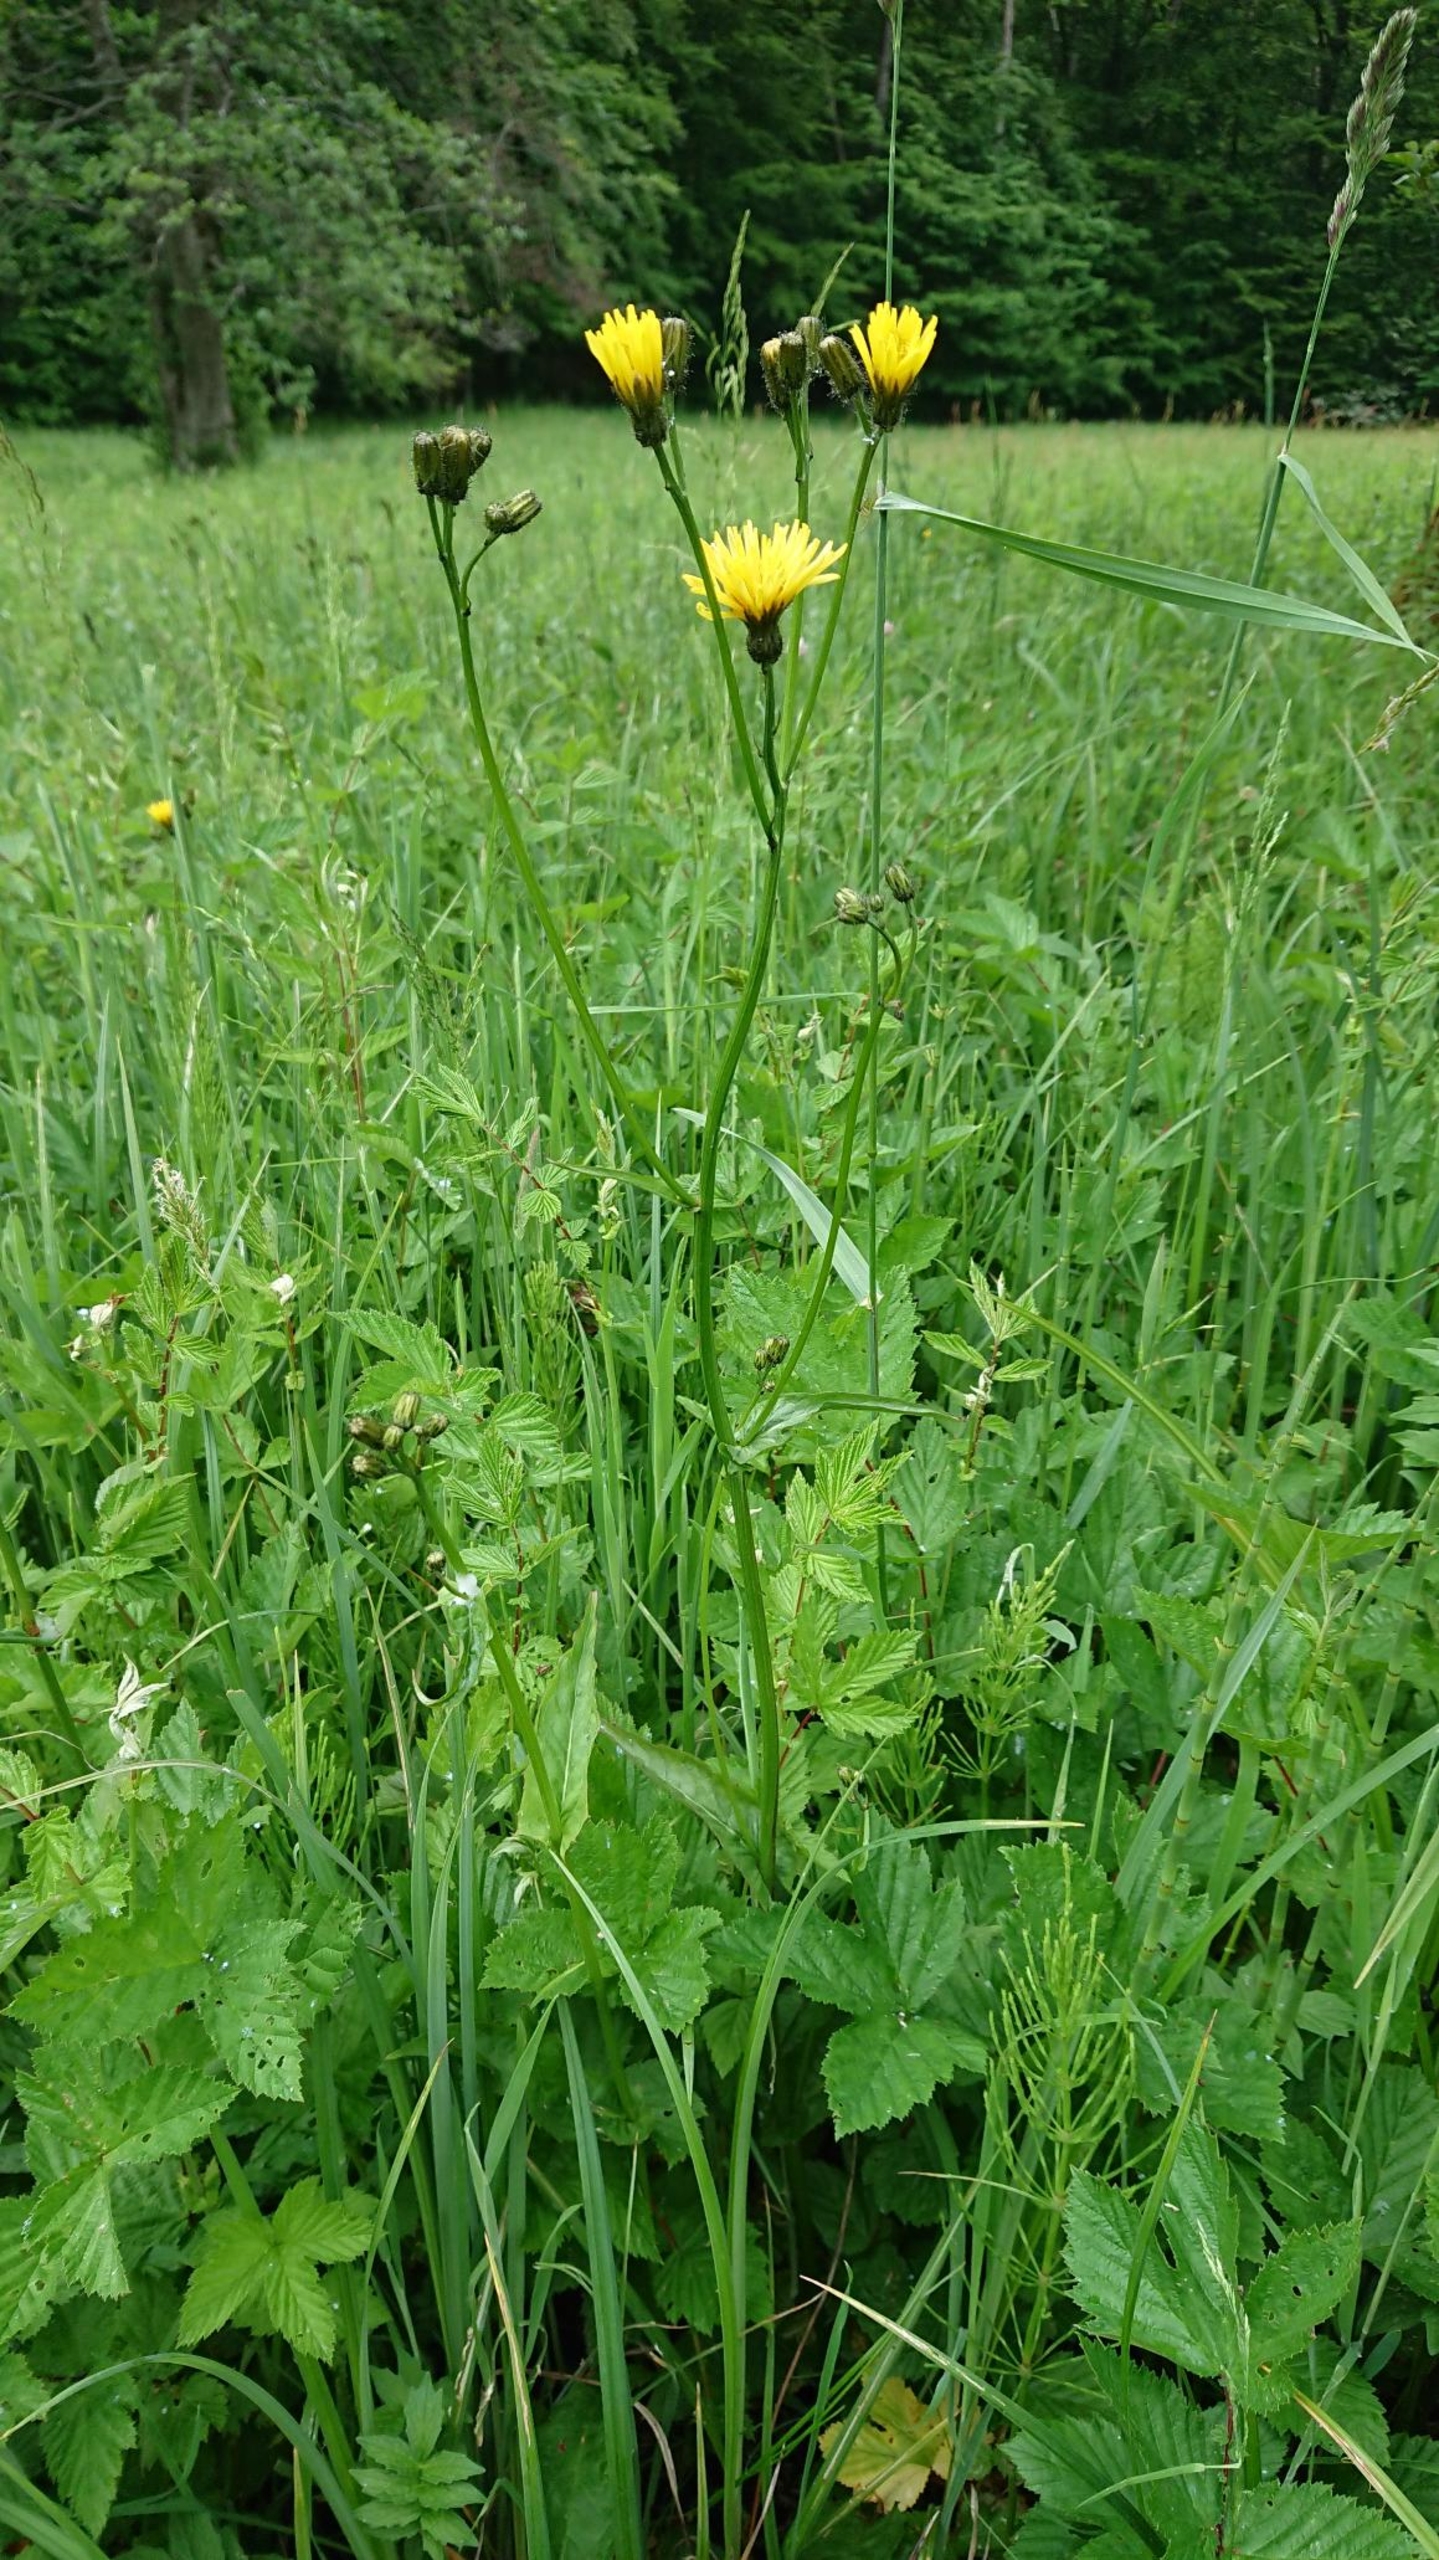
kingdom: Plantae
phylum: Tracheophyta
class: Magnoliopsida
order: Asterales
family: Asteraceae
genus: Crepis
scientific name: Crepis paludosa
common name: Kær-høgeskæg
